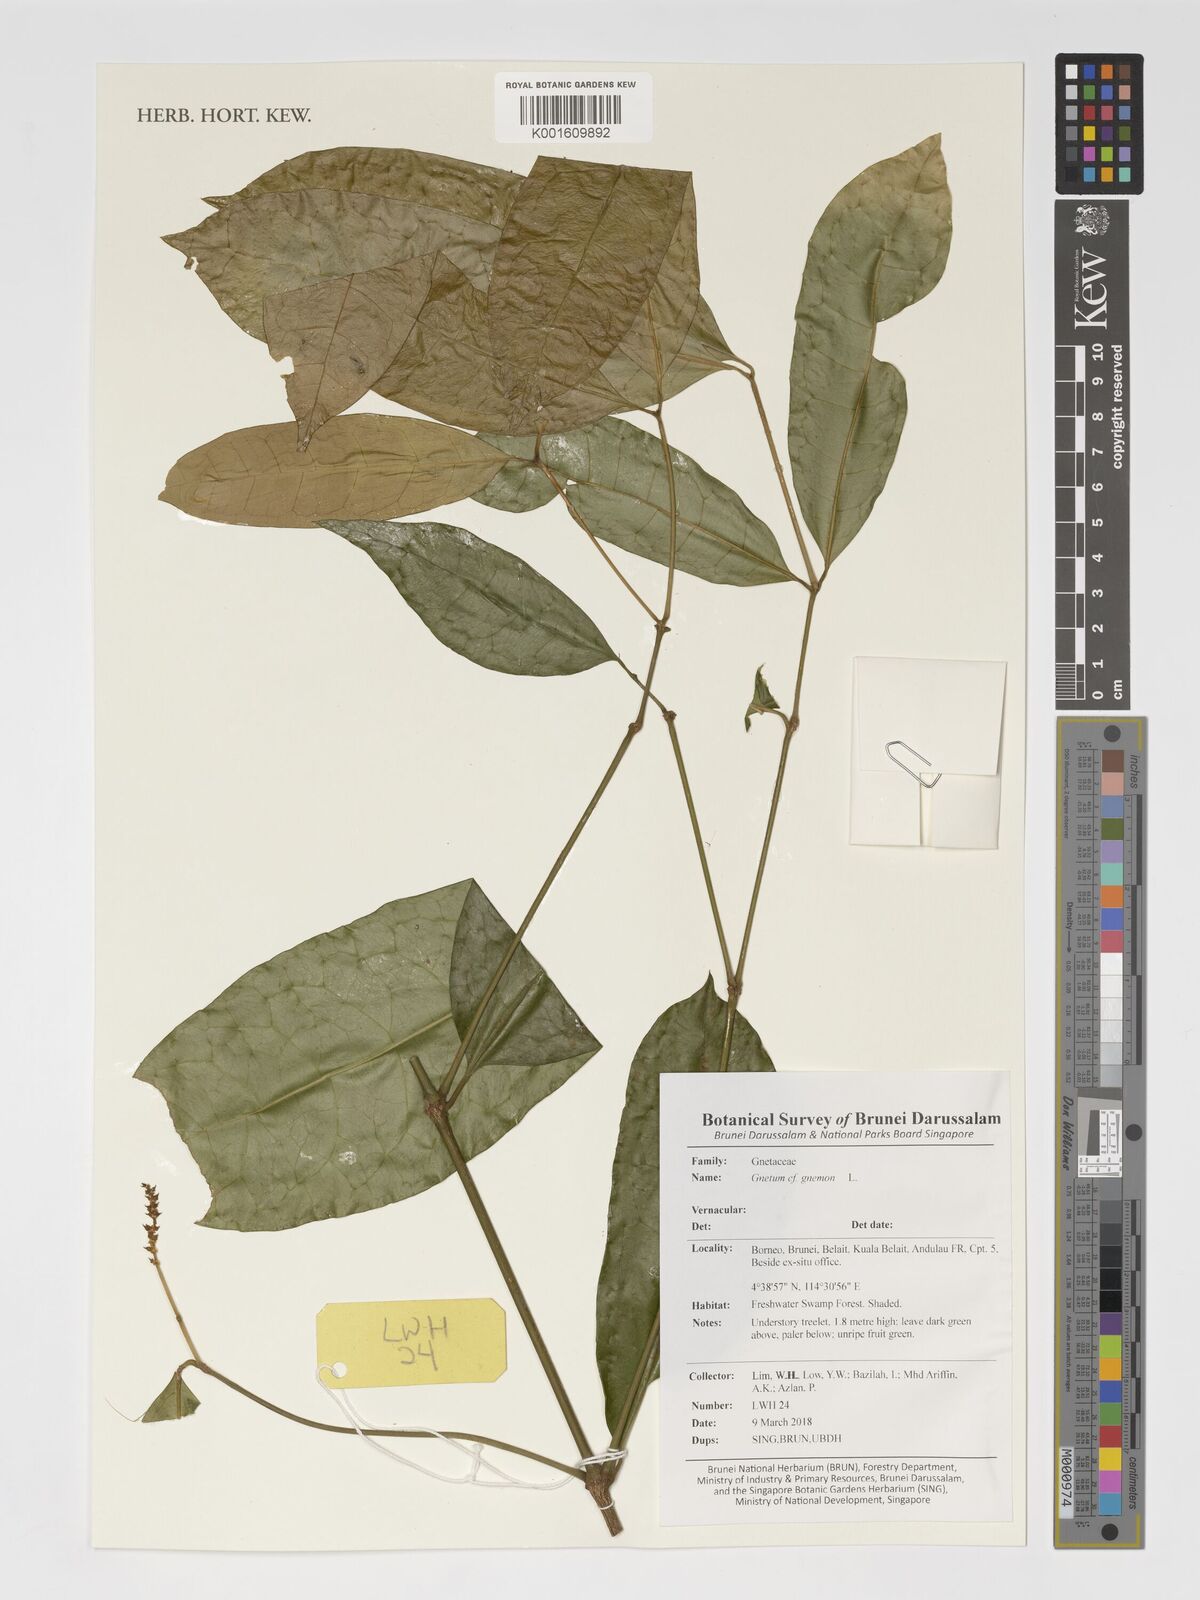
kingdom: Plantae
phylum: Tracheophyta
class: Gnetopsida
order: Gnetales
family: Gnetaceae
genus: Gnetum
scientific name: Gnetum gnemon
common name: Spanish joint-fir
